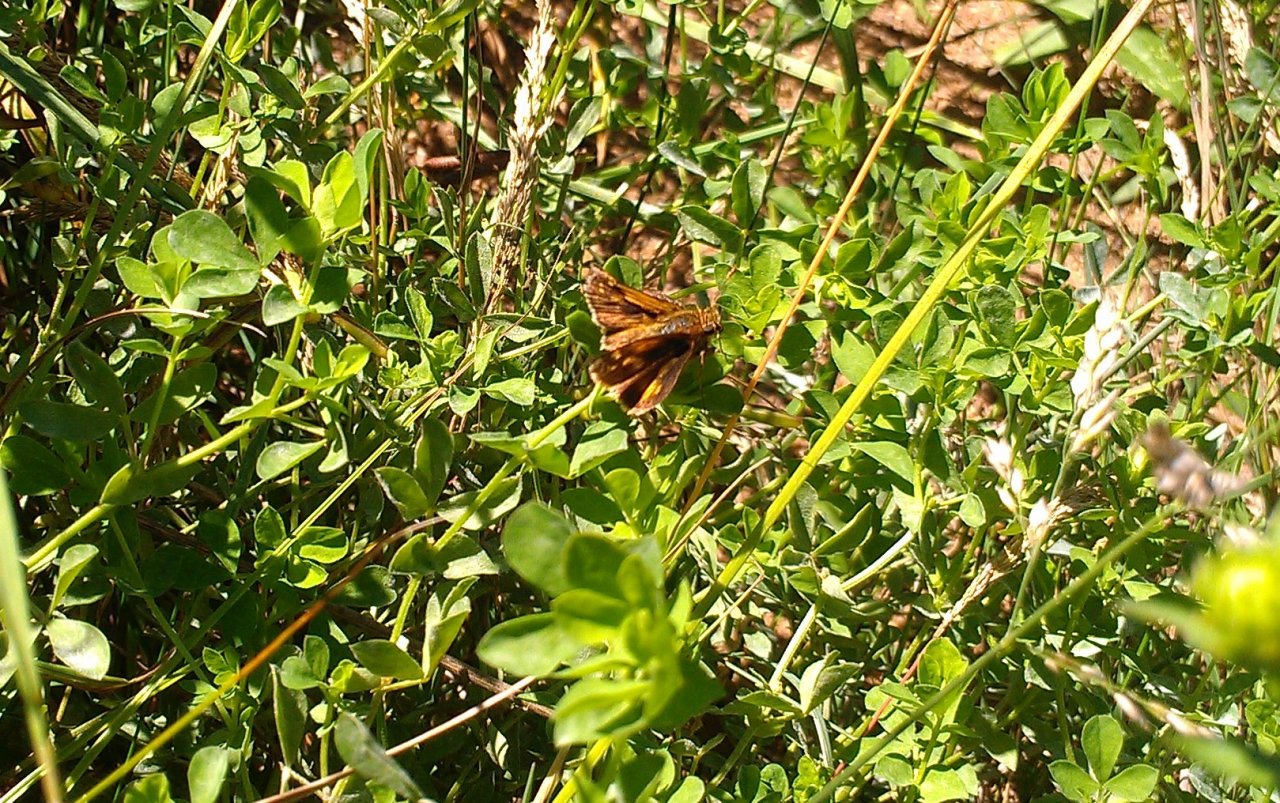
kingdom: Animalia
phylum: Arthropoda
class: Insecta
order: Lepidoptera
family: Hesperiidae
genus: Polites
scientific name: Polites coras
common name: Peck's Skipper
